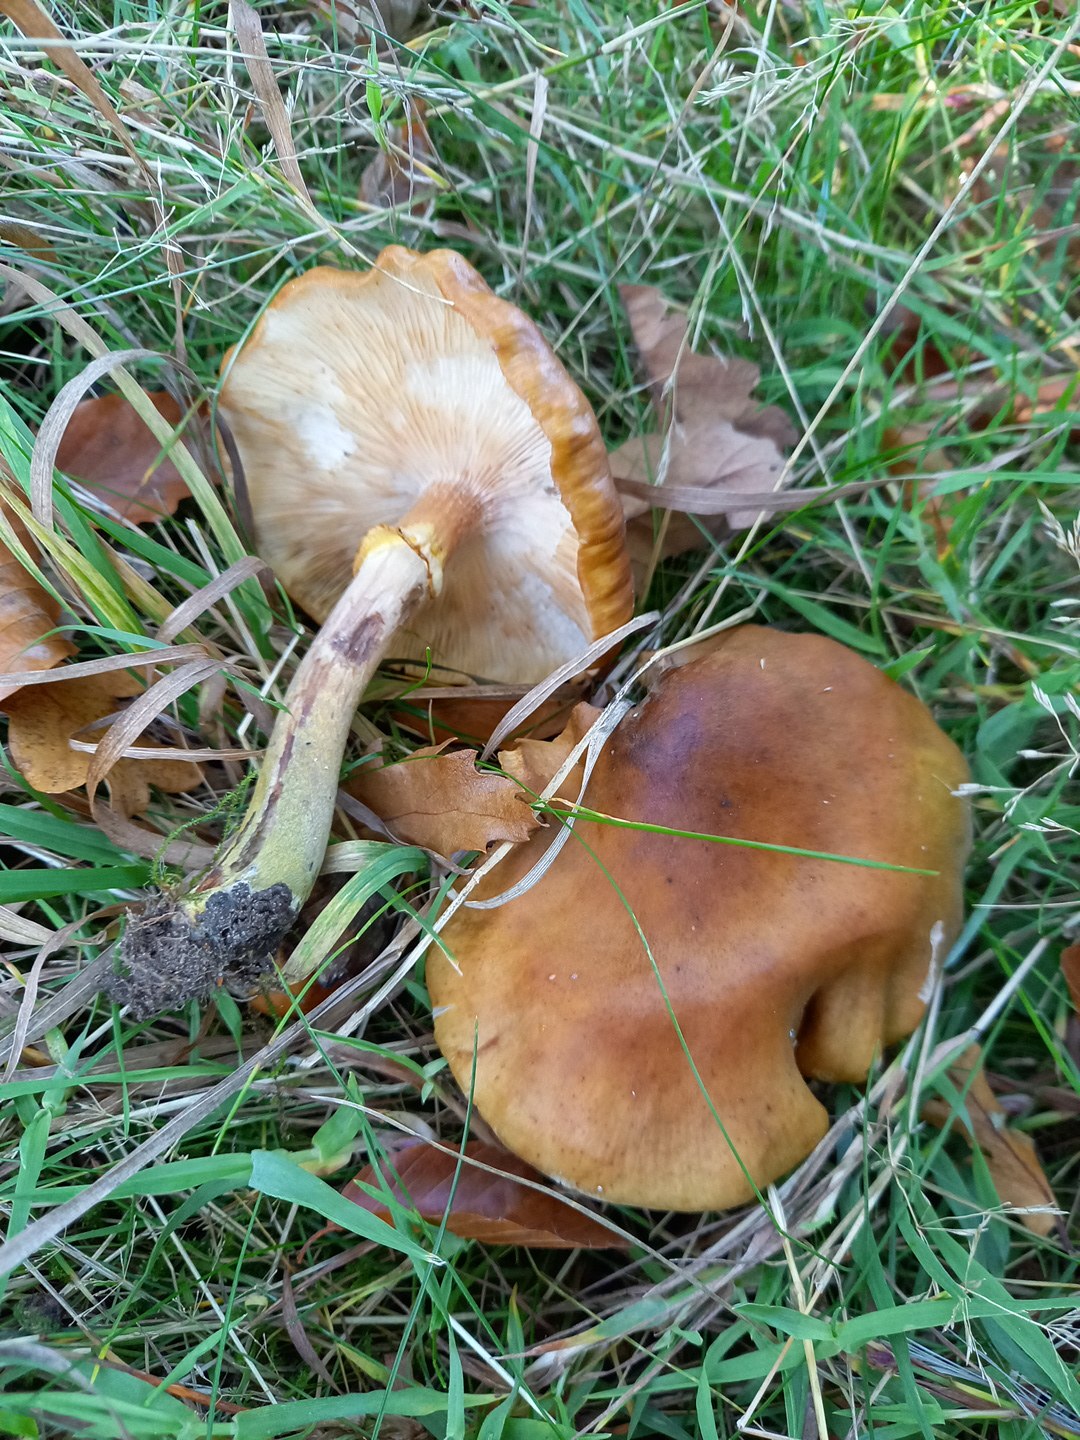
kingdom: Fungi
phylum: Basidiomycota
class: Agaricomycetes
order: Agaricales
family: Physalacriaceae
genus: Armillaria
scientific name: Armillaria mellea
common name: ægte honningsvamp
